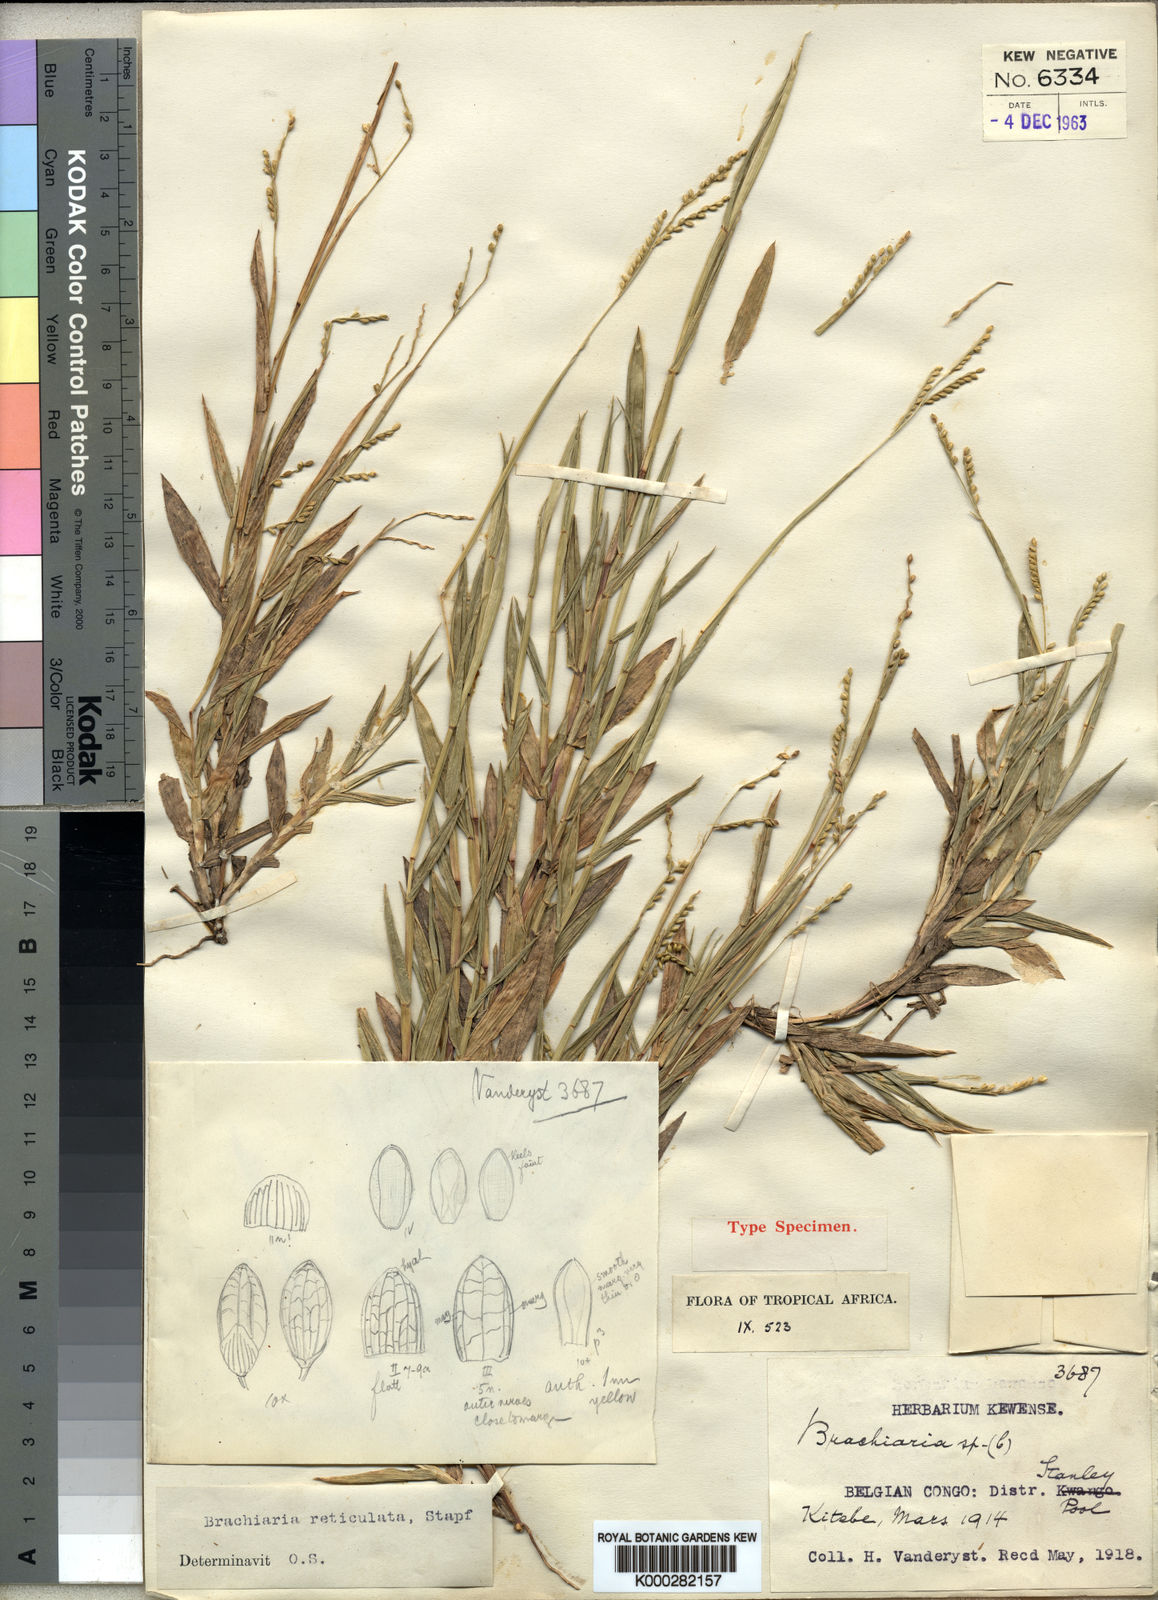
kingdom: Plantae
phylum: Tracheophyta
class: Liliopsida
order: Poales
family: Poaceae
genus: Urochloa
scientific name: Urochloa reticulata
